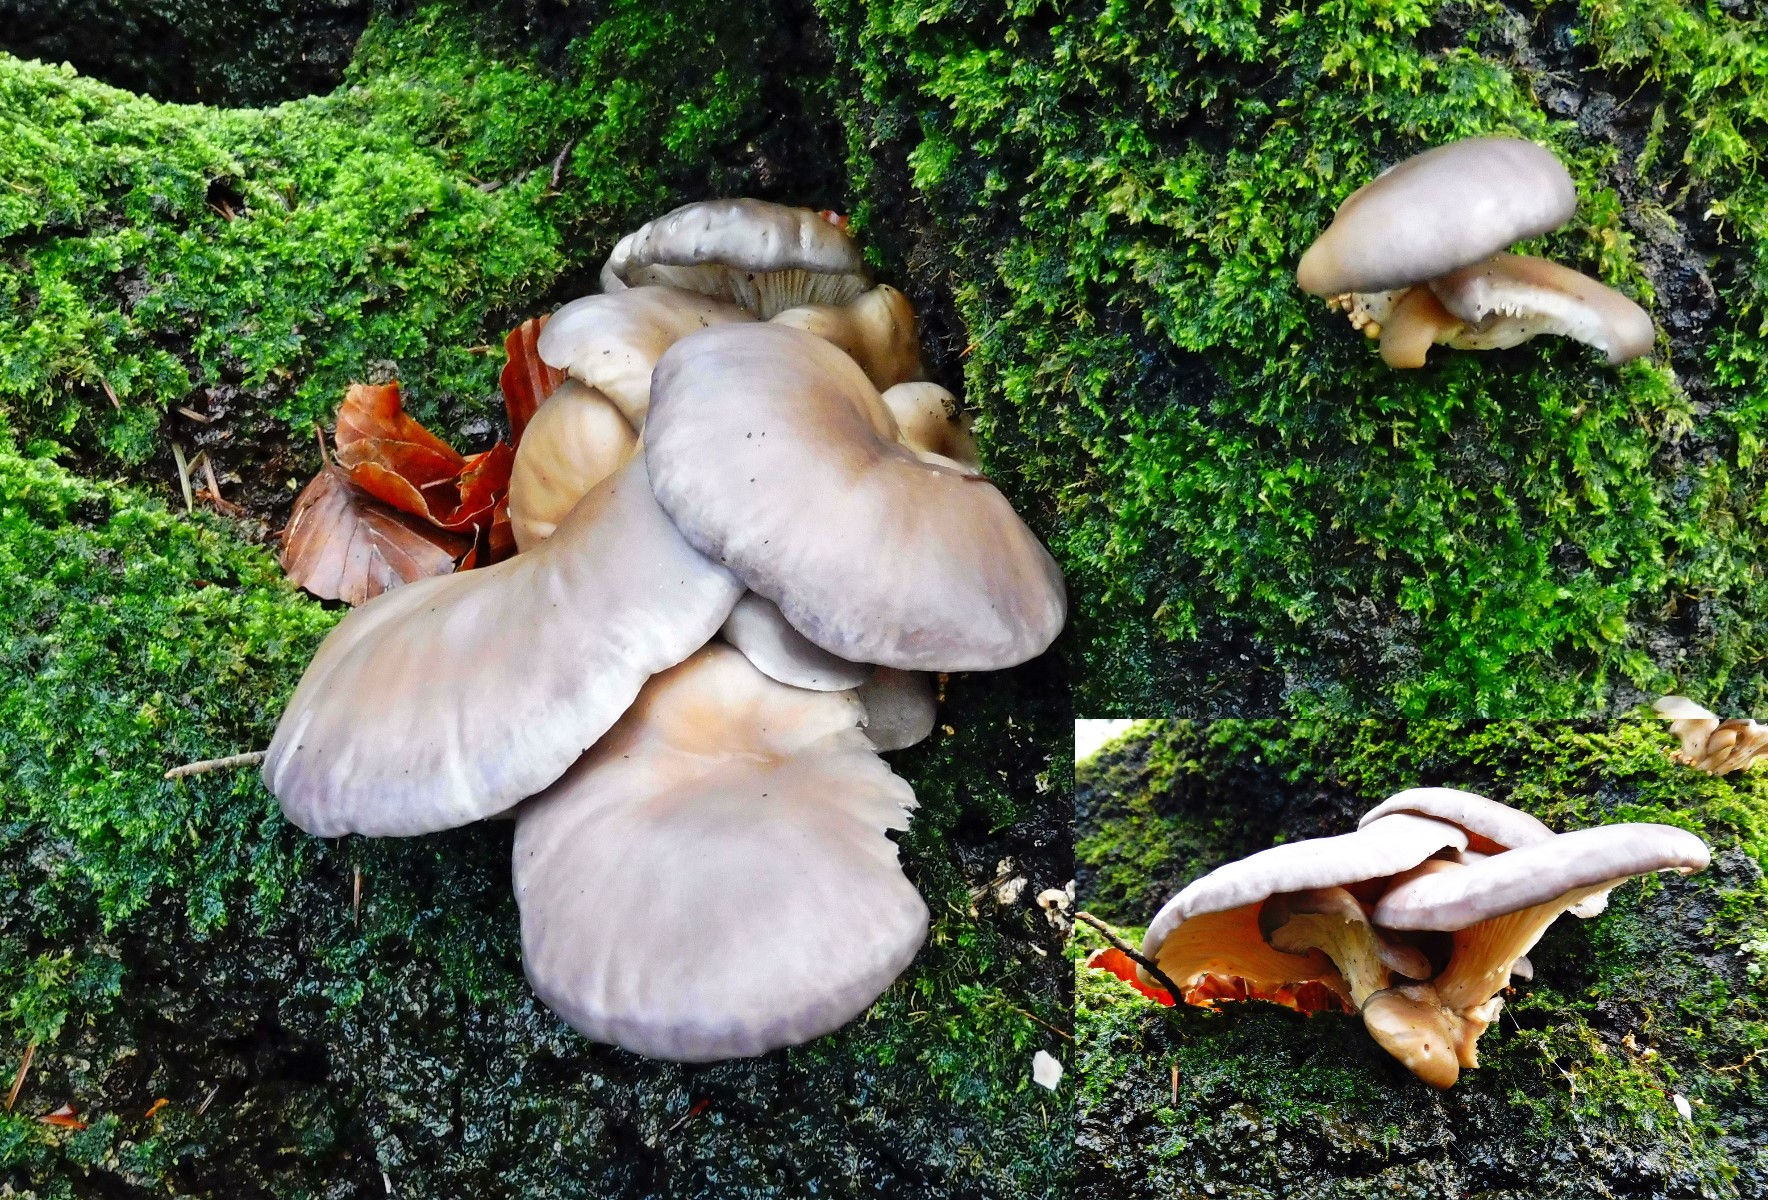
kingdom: Fungi
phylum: Basidiomycota
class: Agaricomycetes
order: Agaricales
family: Pleurotaceae
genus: Pleurotus
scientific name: Pleurotus ostreatus
